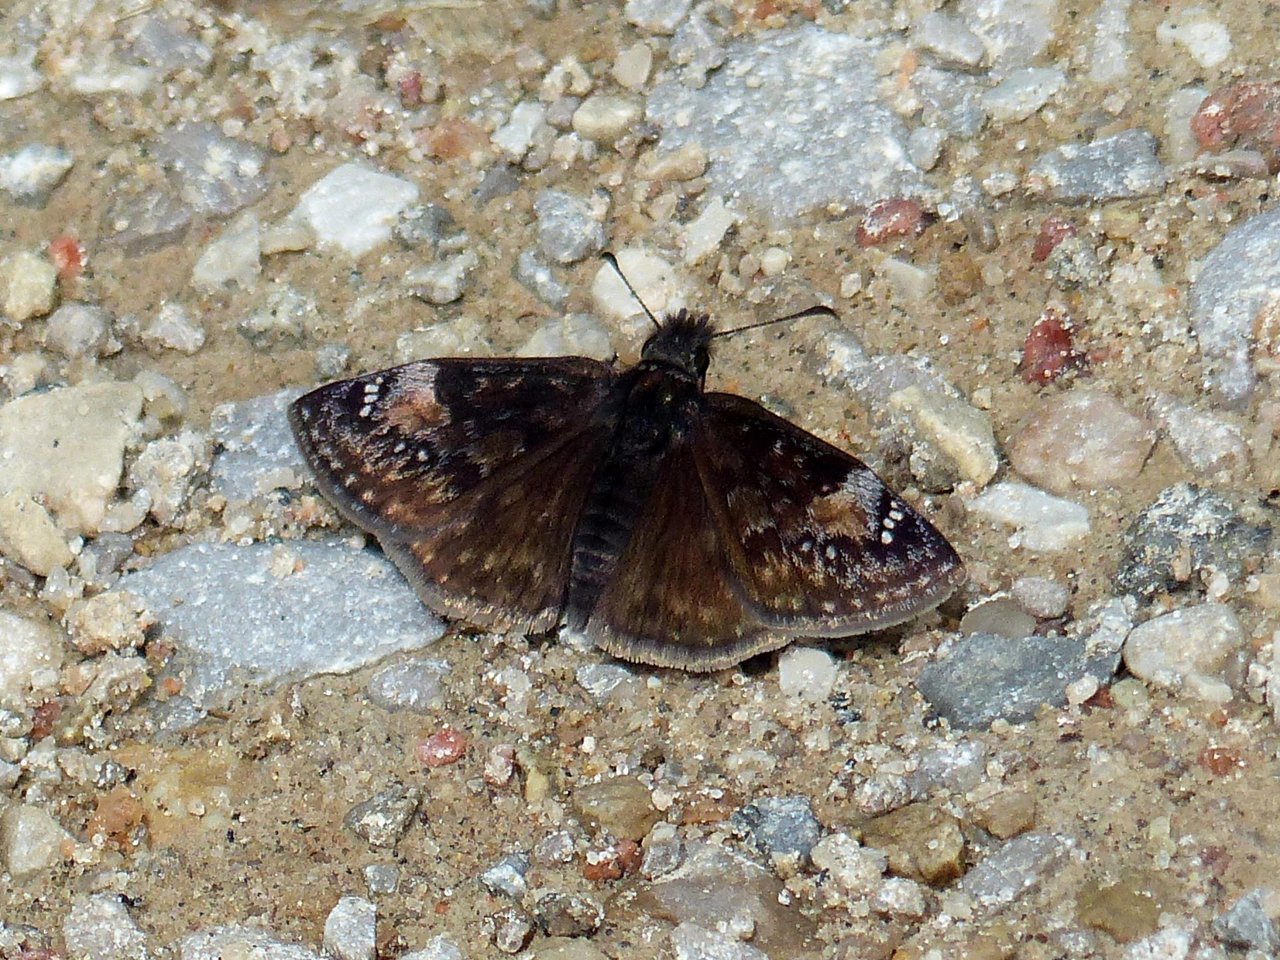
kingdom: Animalia
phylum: Arthropoda
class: Insecta
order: Lepidoptera
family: Hesperiidae
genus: Gesta
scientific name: Gesta
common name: Columbine Duskywing
